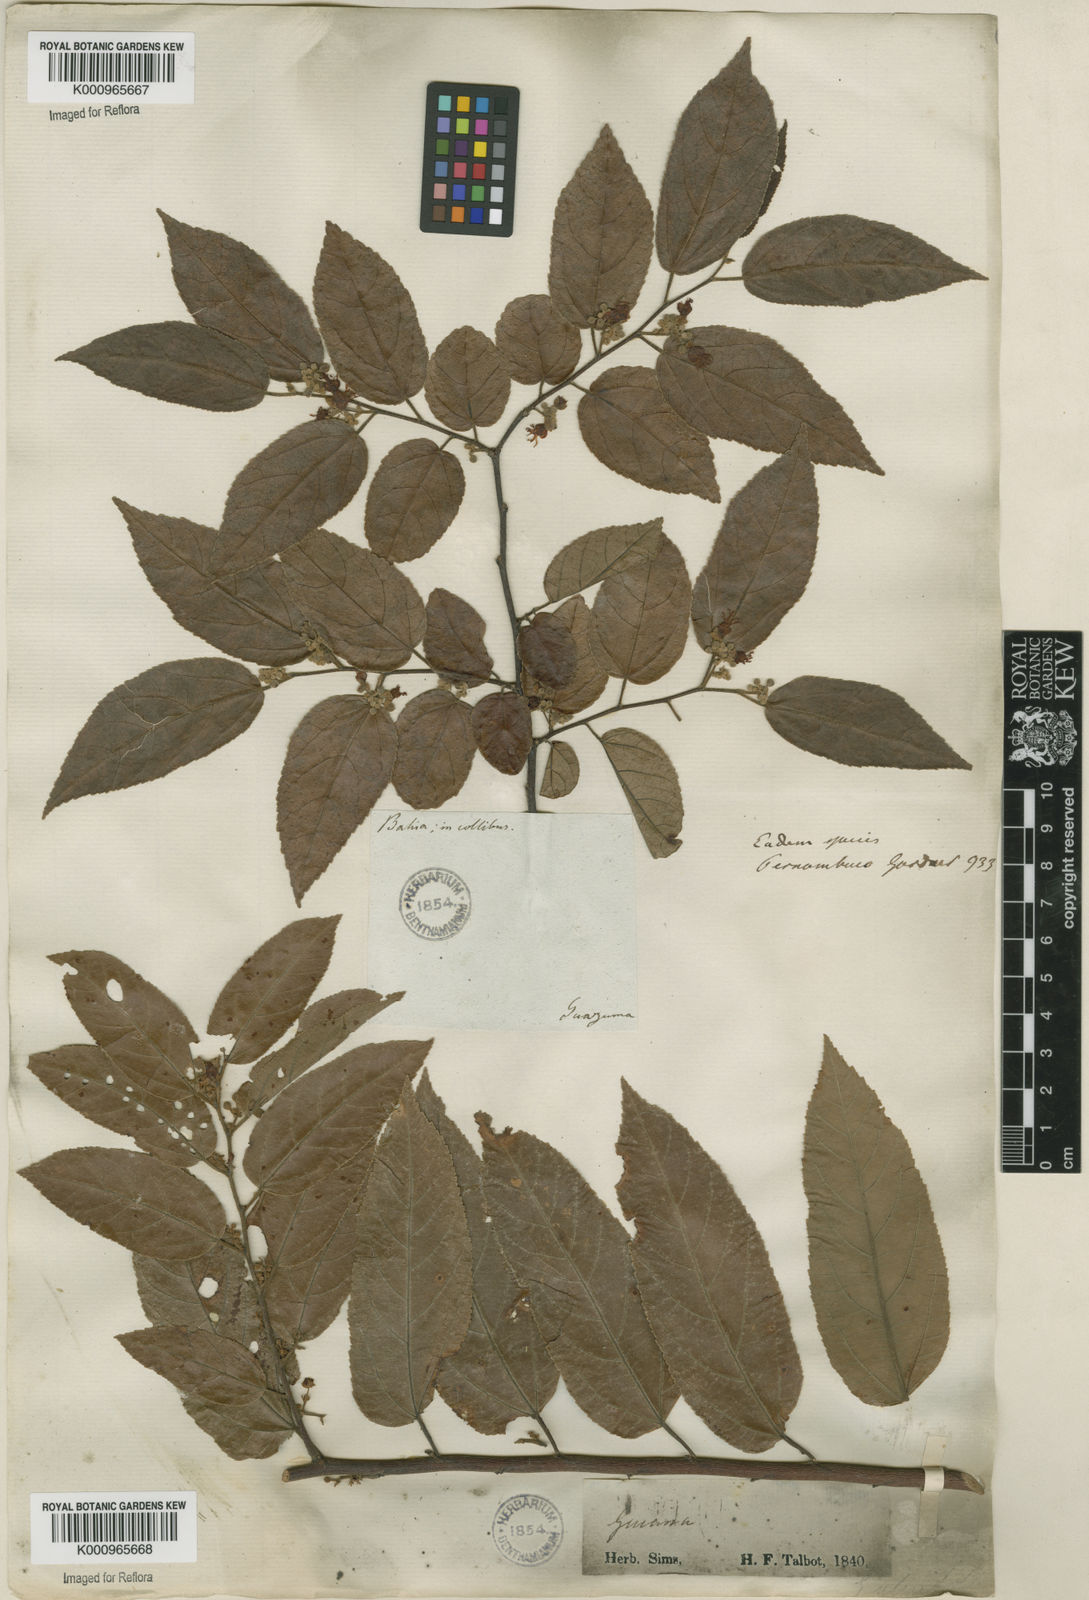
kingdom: Plantae
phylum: Tracheophyta
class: Magnoliopsida
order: Malvales
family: Malvaceae
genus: Guazuma
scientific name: Guazuma ulmifolia
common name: Bastard-cedar
